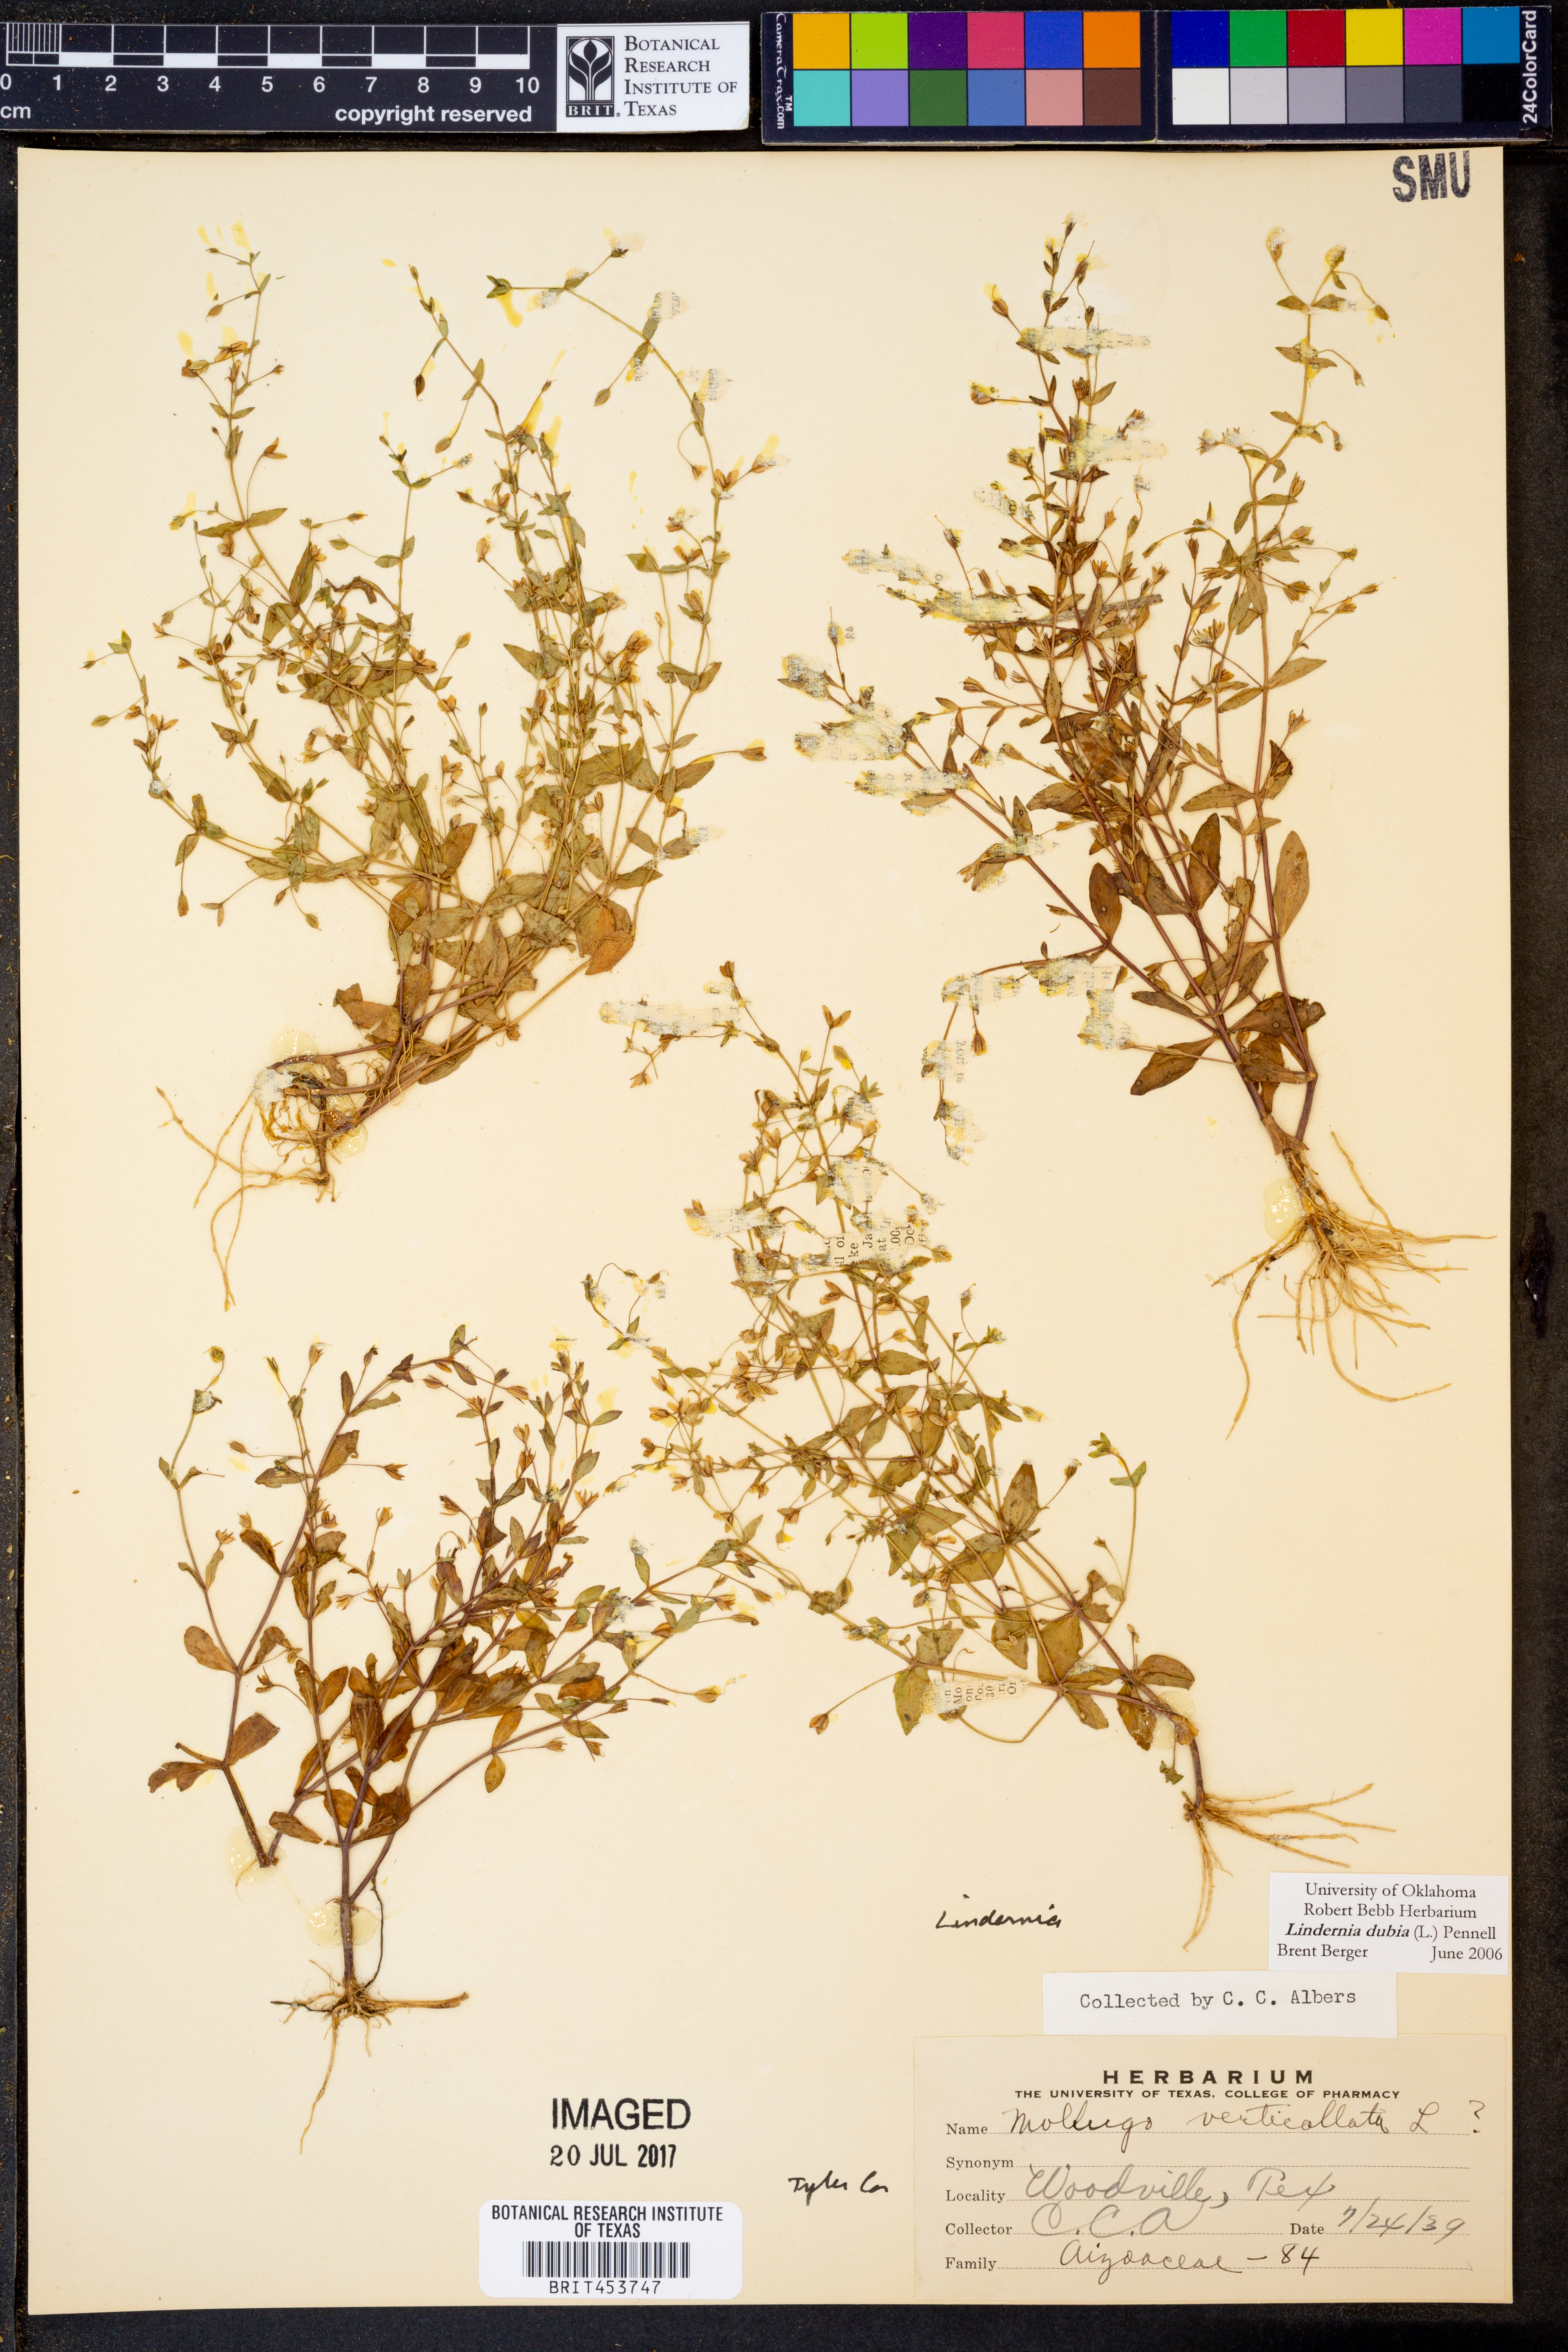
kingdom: Plantae
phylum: Tracheophyta
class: Magnoliopsida
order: Lamiales
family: Linderniaceae
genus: Lindernia
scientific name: Lindernia dubia
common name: Annual false pimpernel
